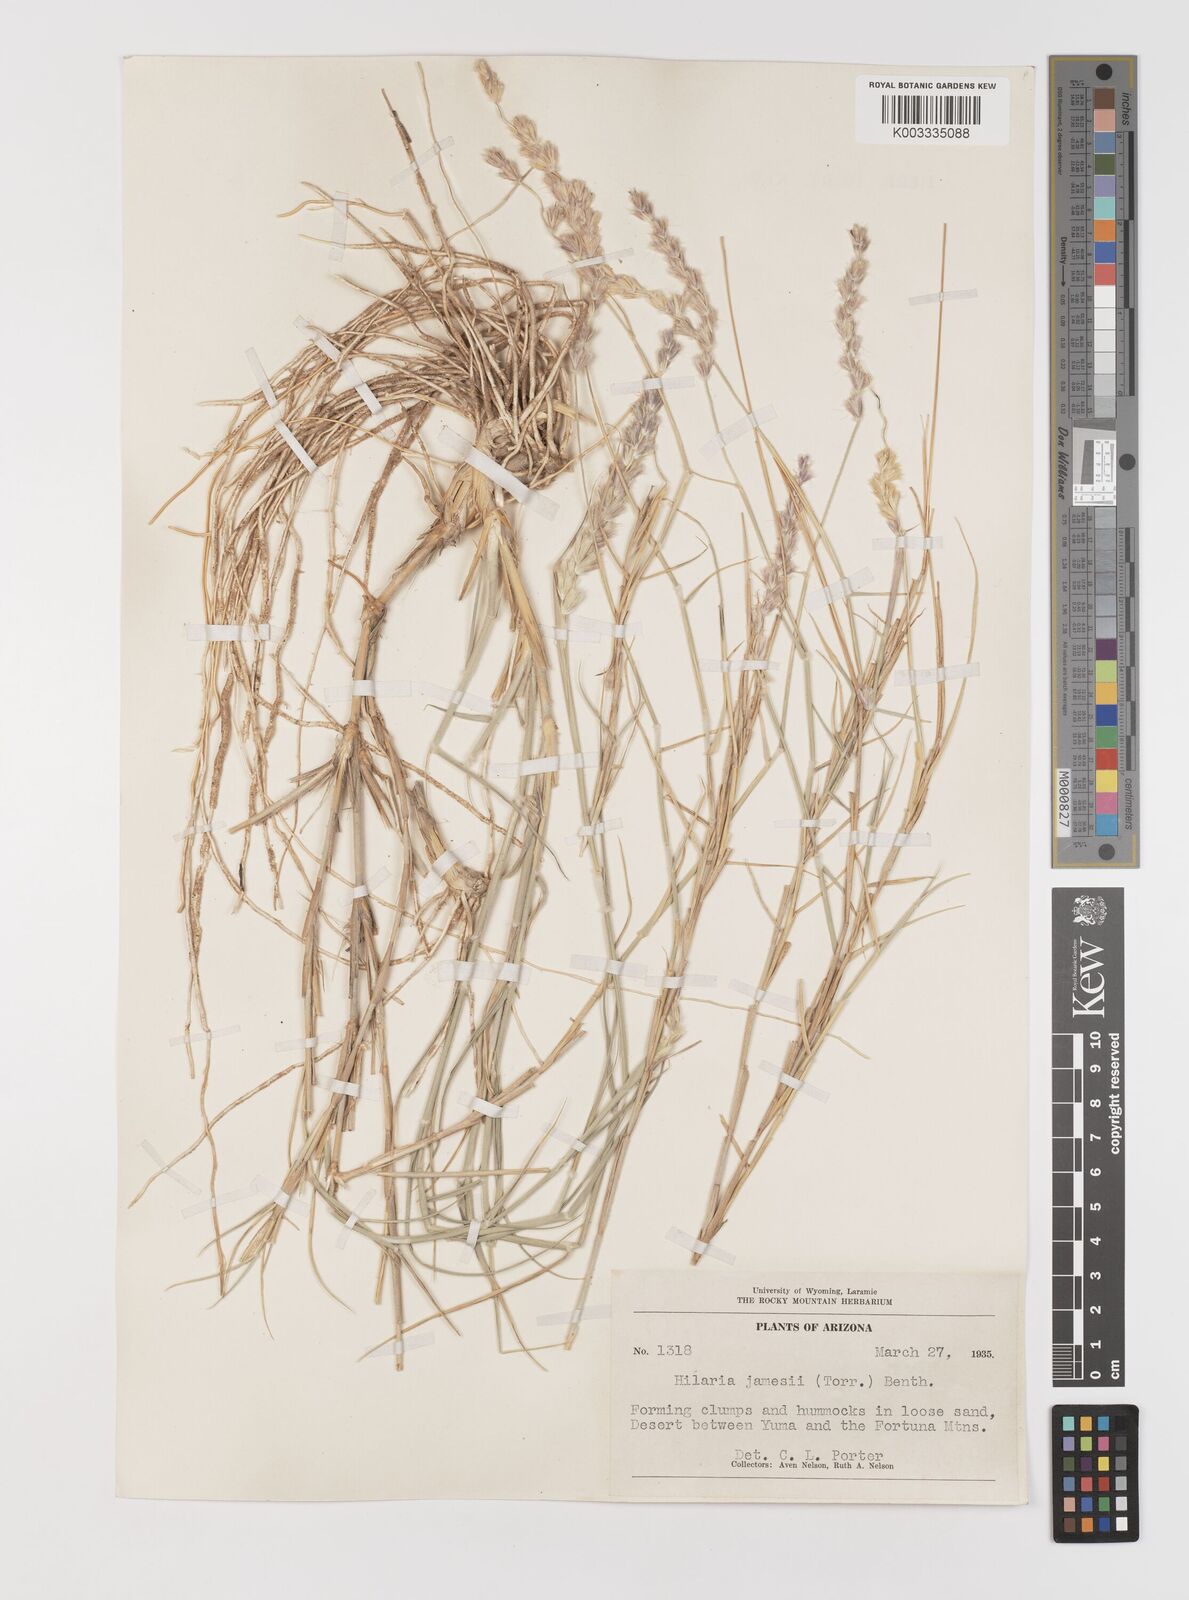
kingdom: Plantae
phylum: Tracheophyta
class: Liliopsida
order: Poales
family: Poaceae
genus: Hilaria
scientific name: Hilaria jamesii
